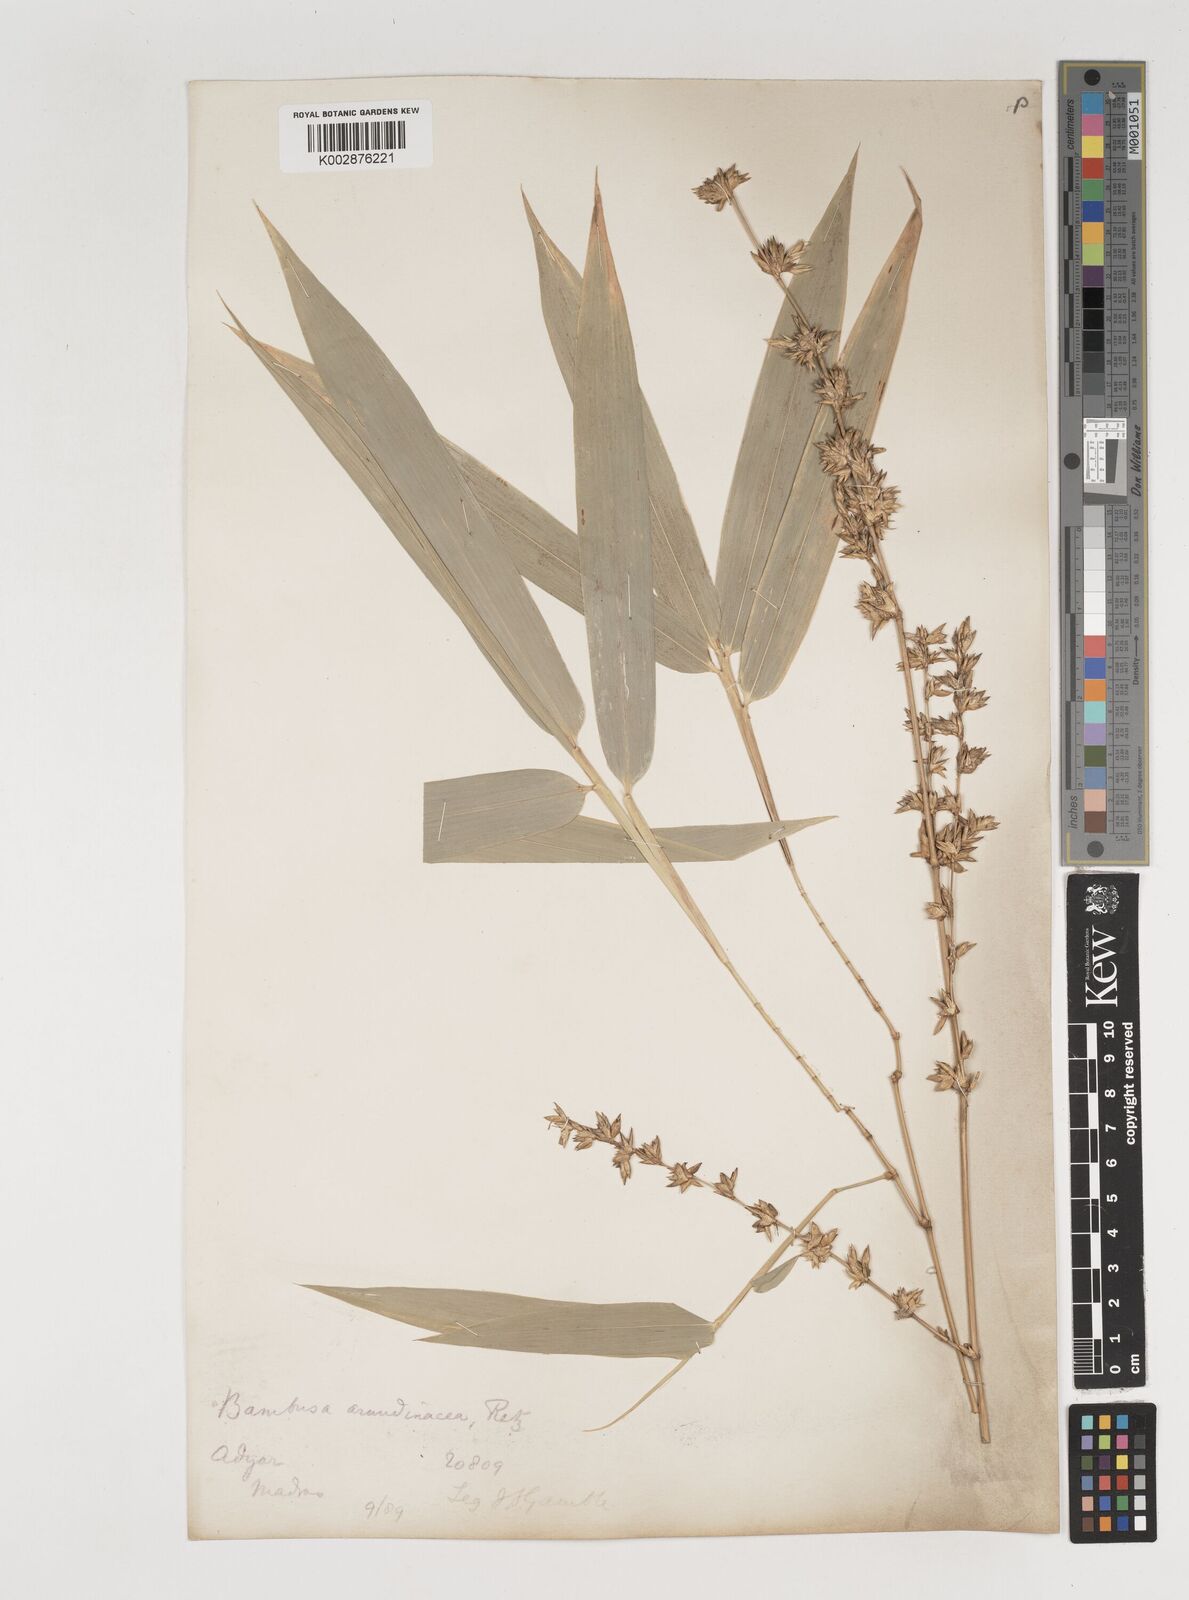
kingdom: Plantae
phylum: Tracheophyta
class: Liliopsida
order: Poales
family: Poaceae
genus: Bambusa
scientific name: Bambusa bambos
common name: Indian thorny bamboo
